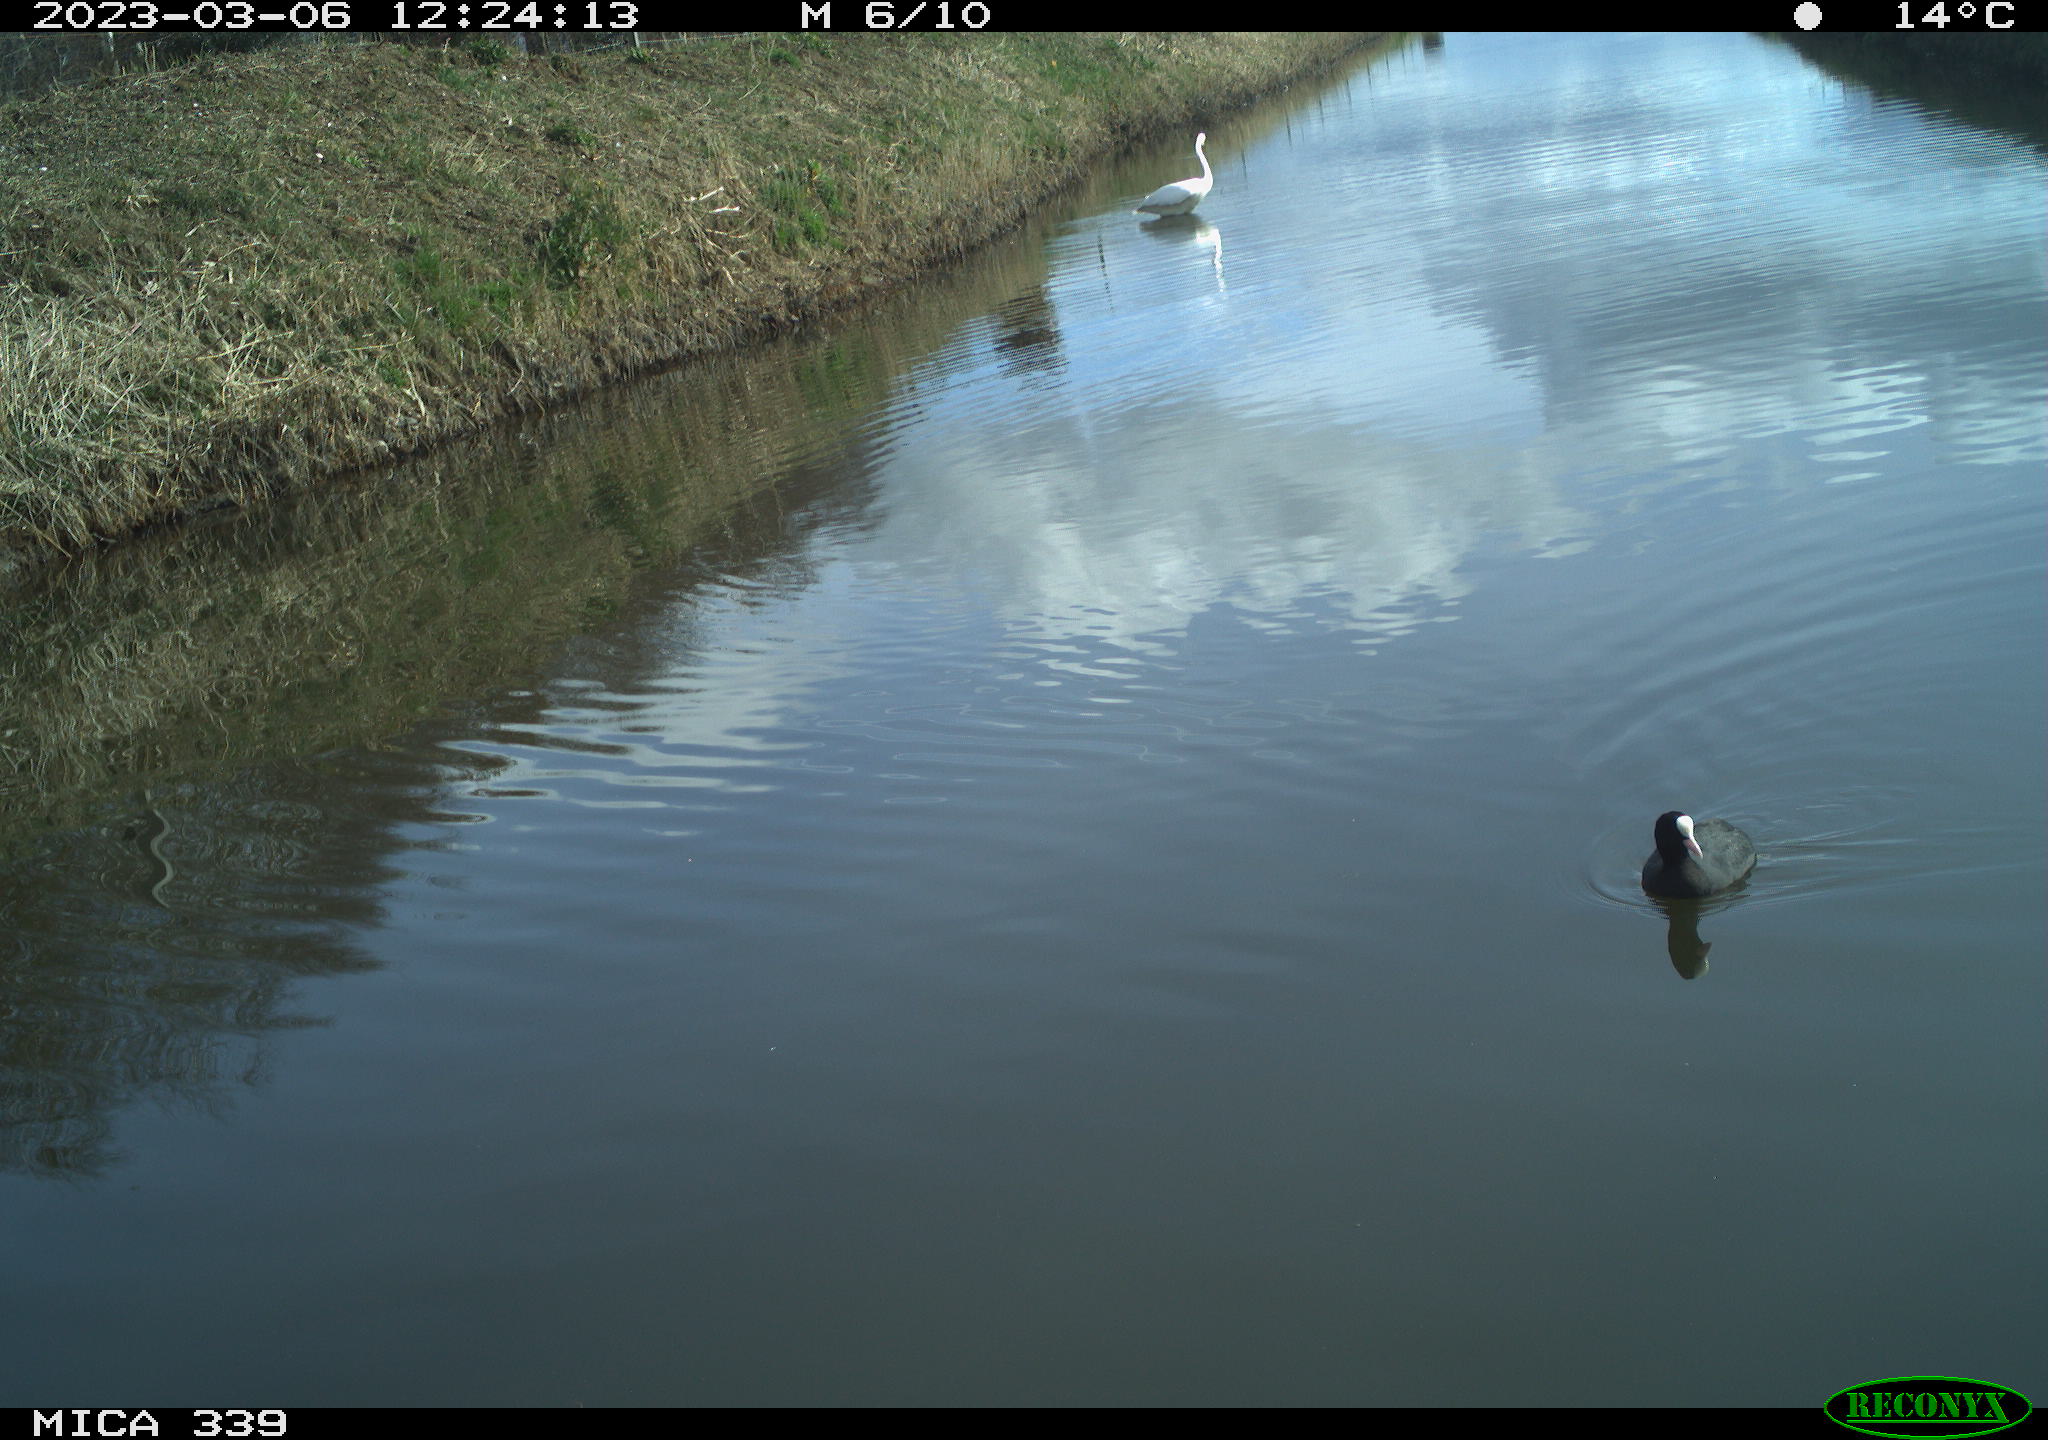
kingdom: Animalia
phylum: Chordata
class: Aves
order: Gruiformes
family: Rallidae
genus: Fulica
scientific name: Fulica atra
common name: Eurasian coot
